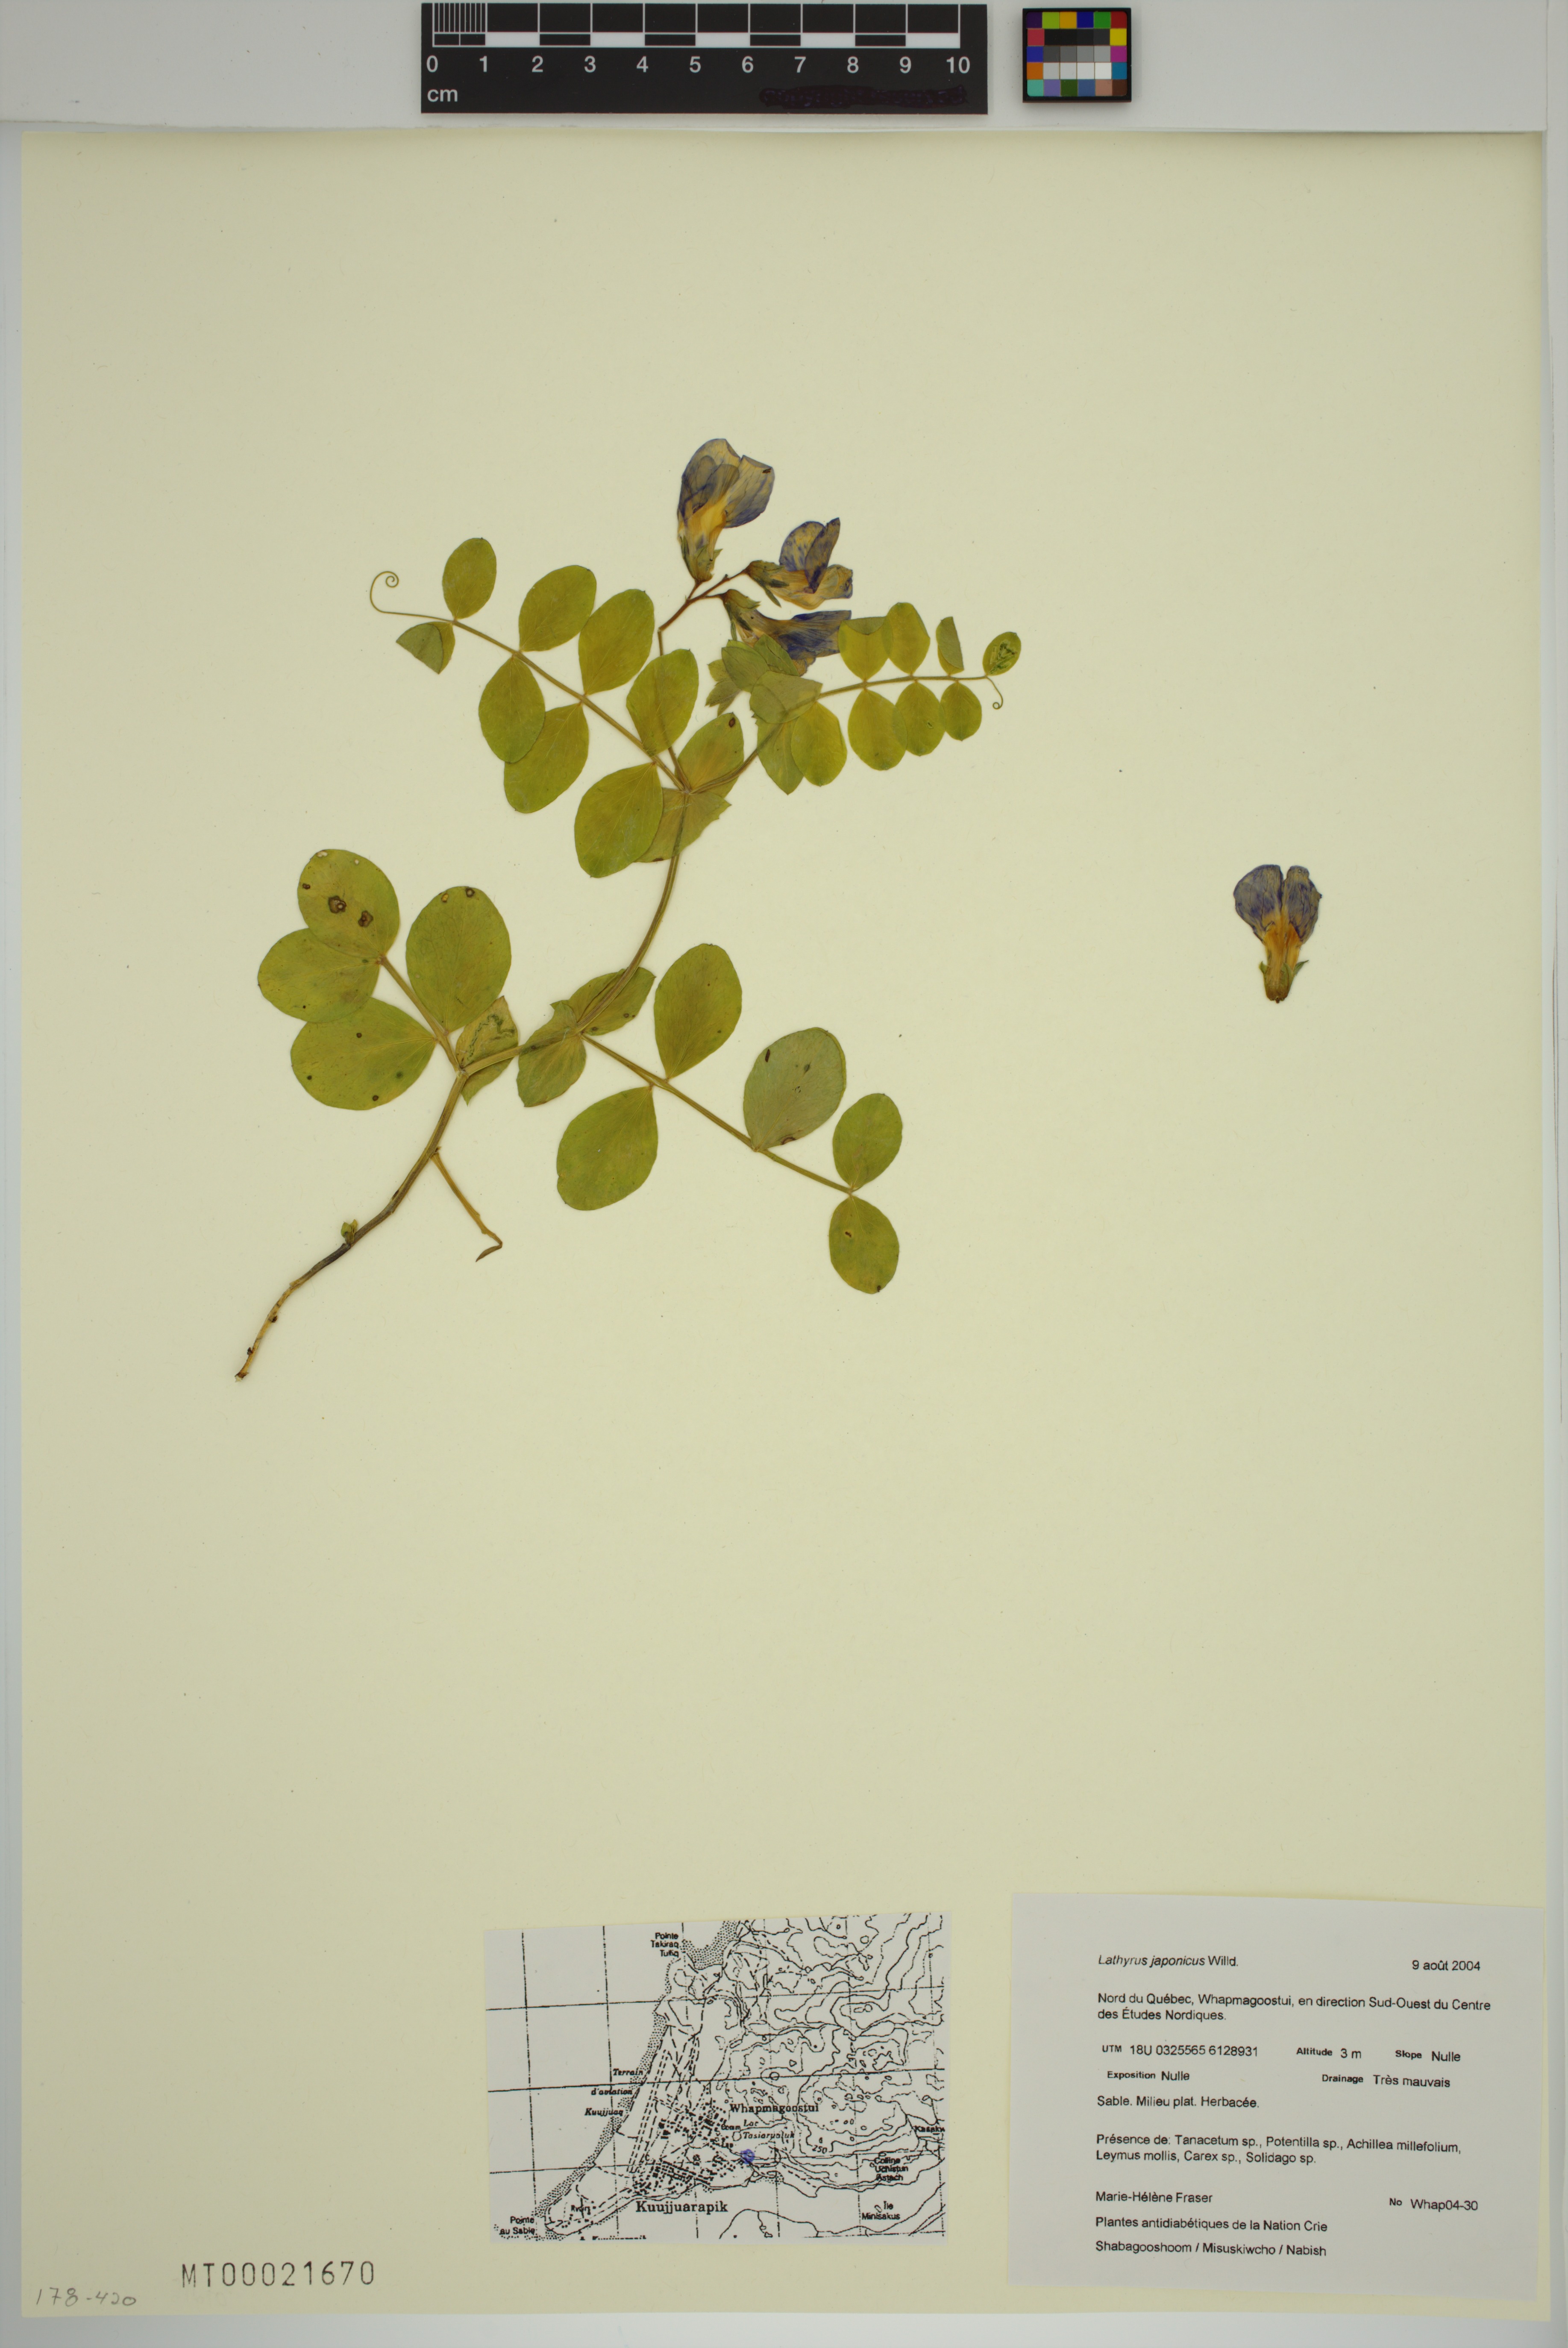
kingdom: Plantae
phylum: Tracheophyta
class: Magnoliopsida
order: Fabales
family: Fabaceae
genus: Lathyrus
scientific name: Lathyrus japonicus
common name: Sea pea
